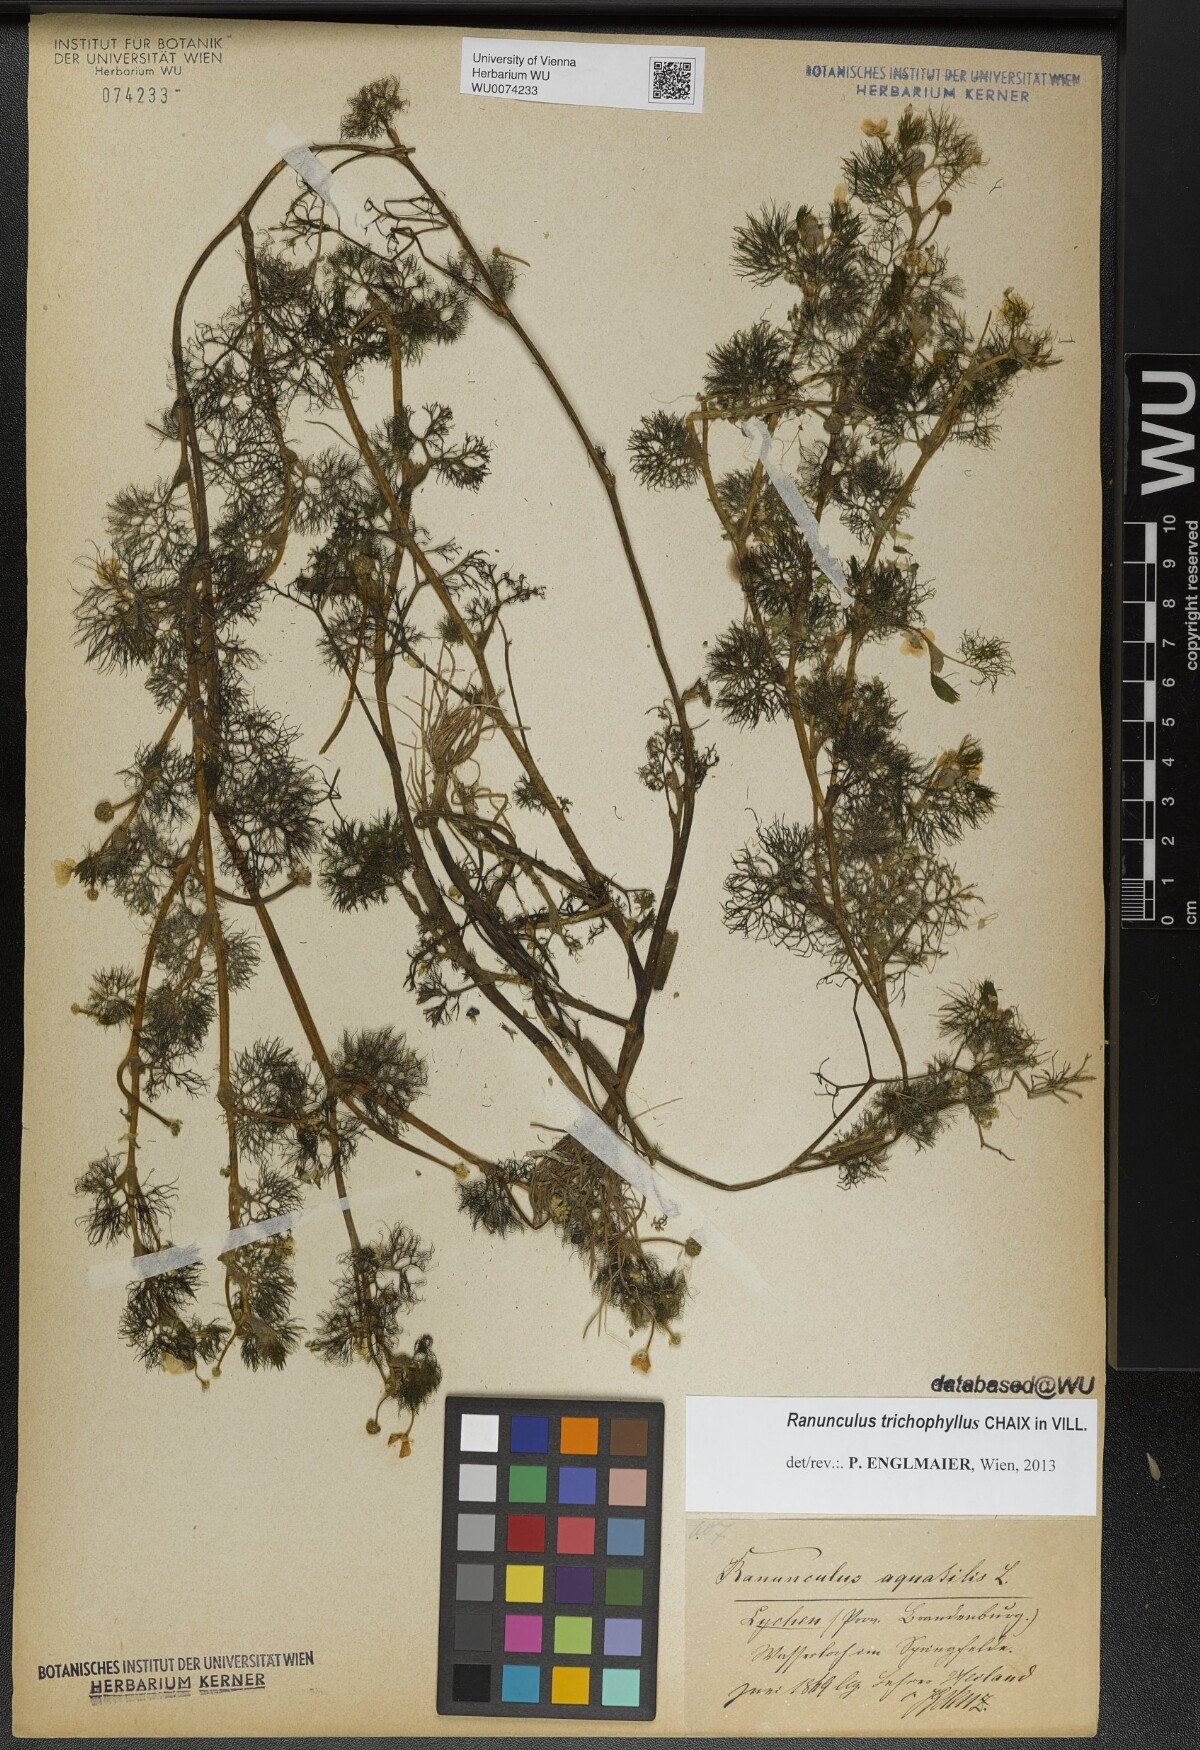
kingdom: Plantae
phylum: Tracheophyta
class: Magnoliopsida
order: Ranunculales
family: Ranunculaceae
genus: Ranunculus
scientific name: Ranunculus trichophyllus
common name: Thread-leaved water-crowfoot
